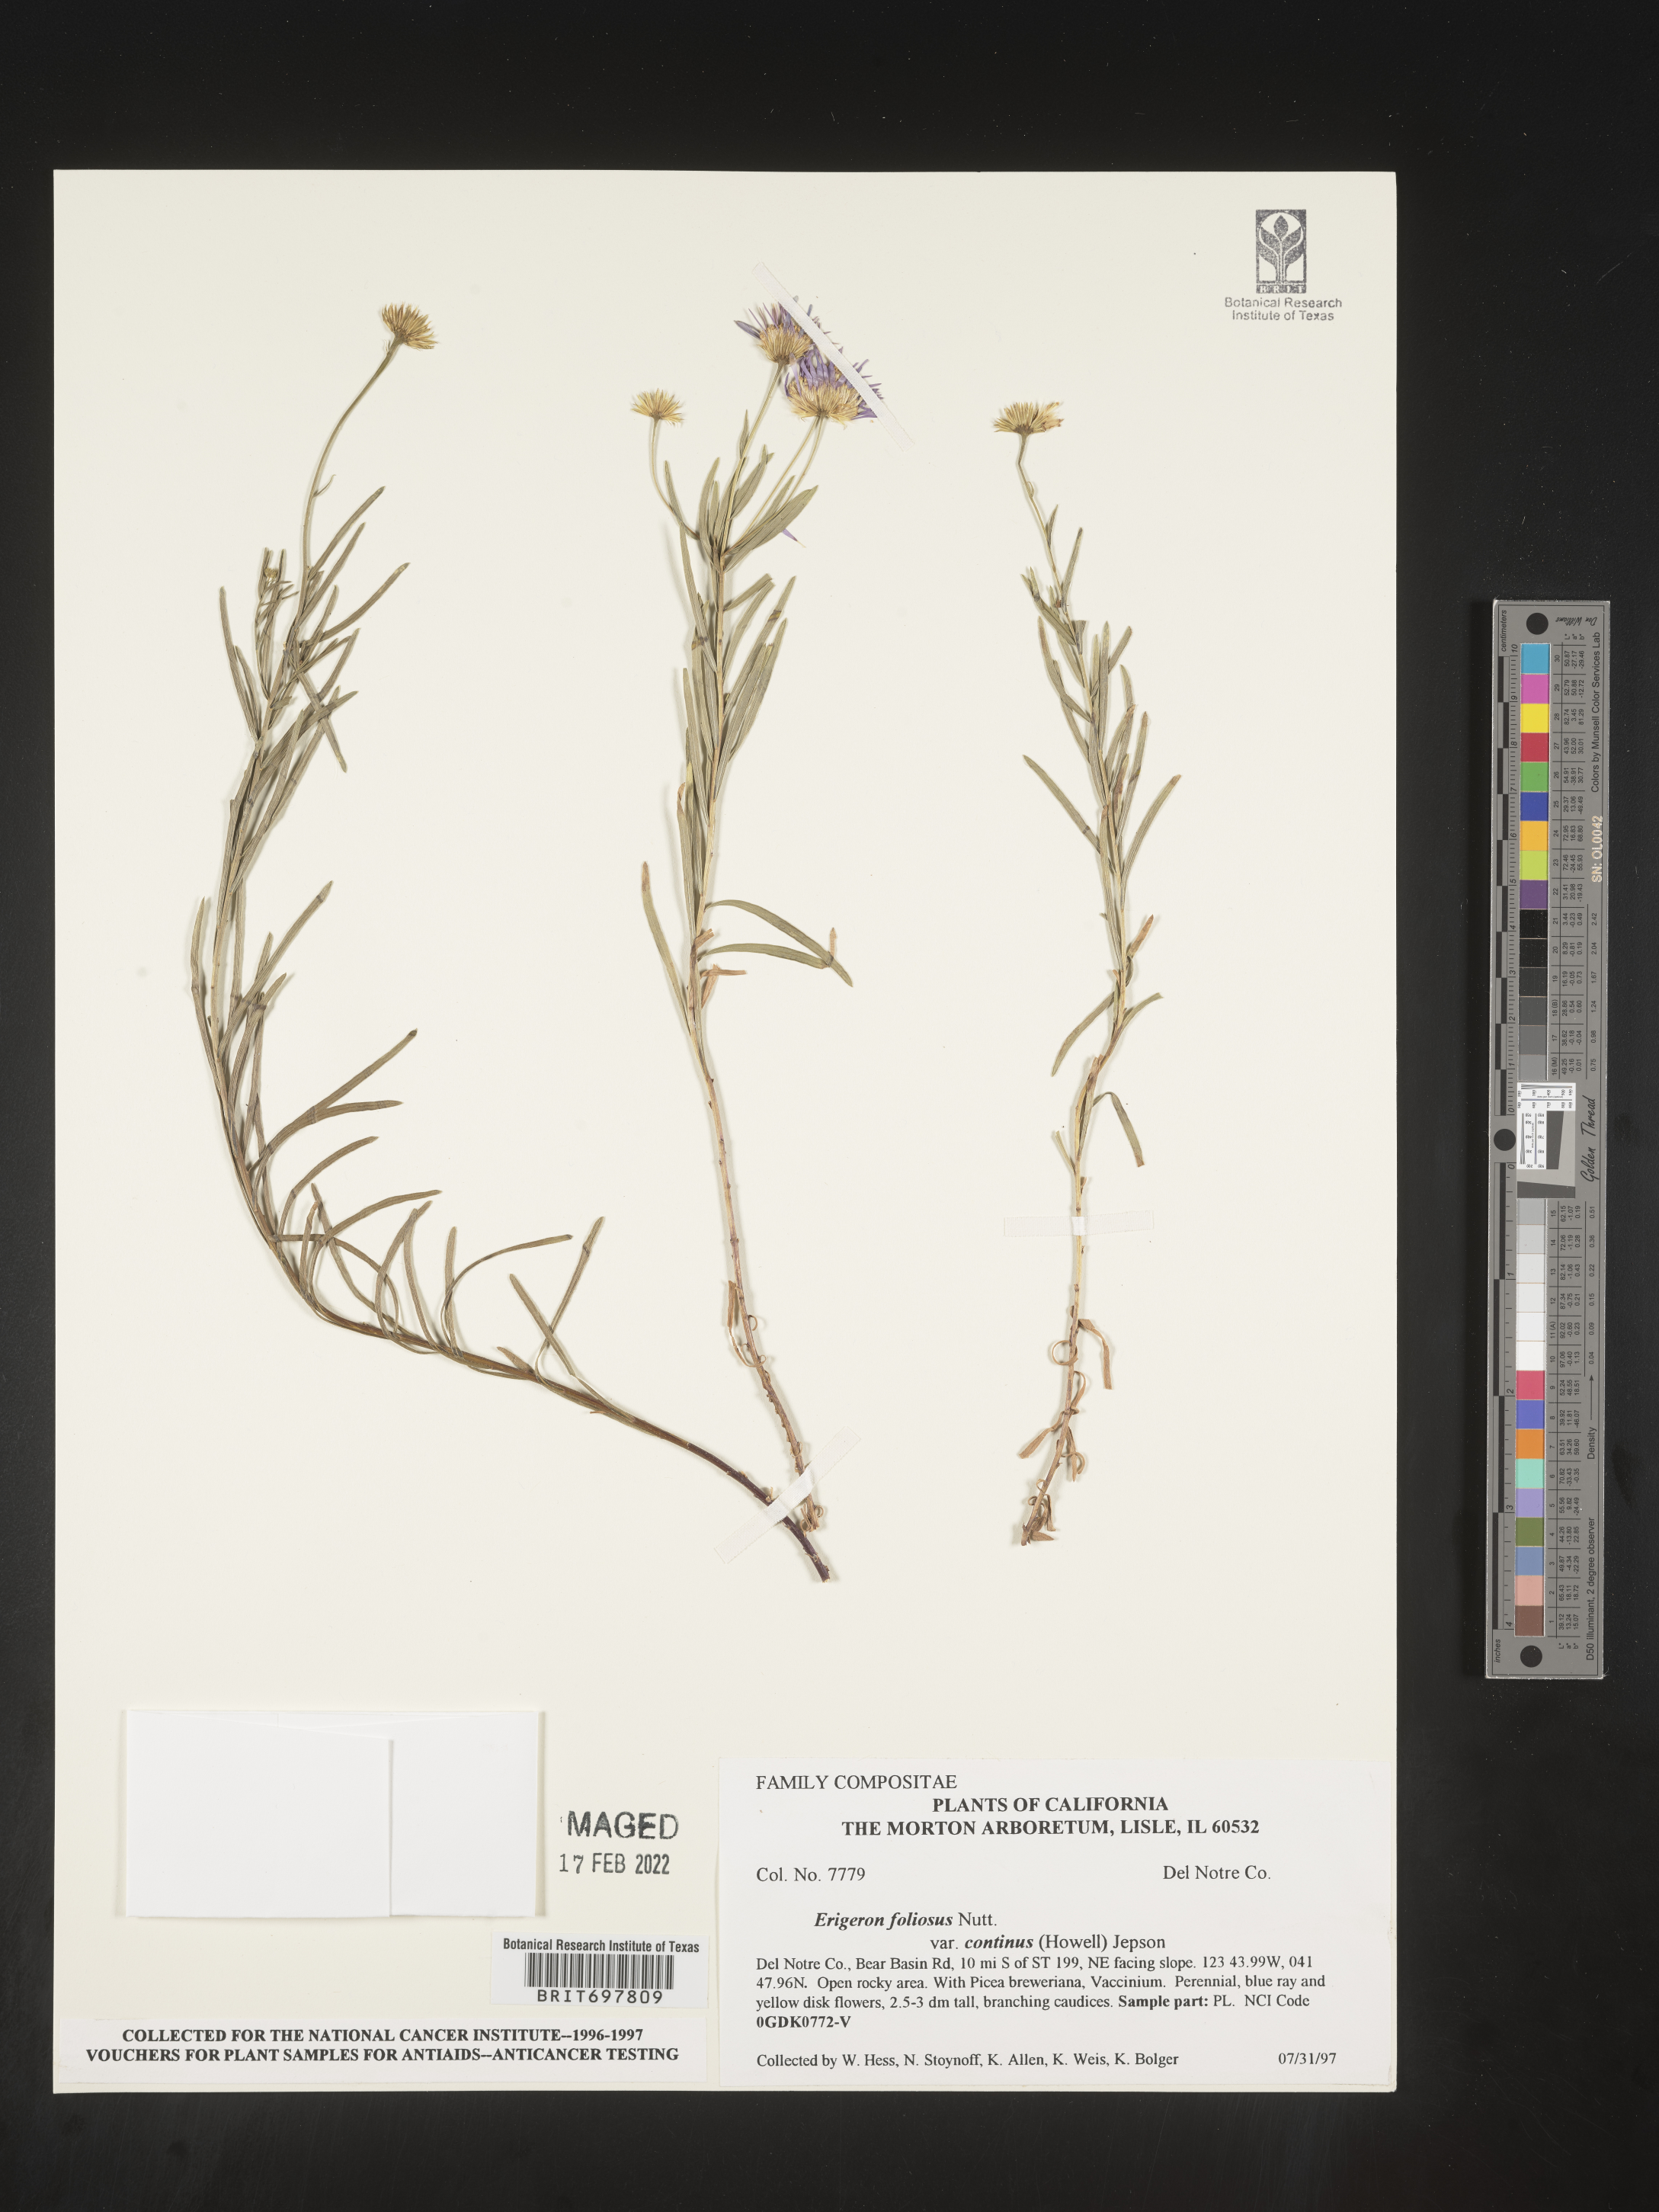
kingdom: Plantae
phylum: Tracheophyta
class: Magnoliopsida
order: Asterales
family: Asteraceae
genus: Erigeron
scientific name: Erigeron foliosus
